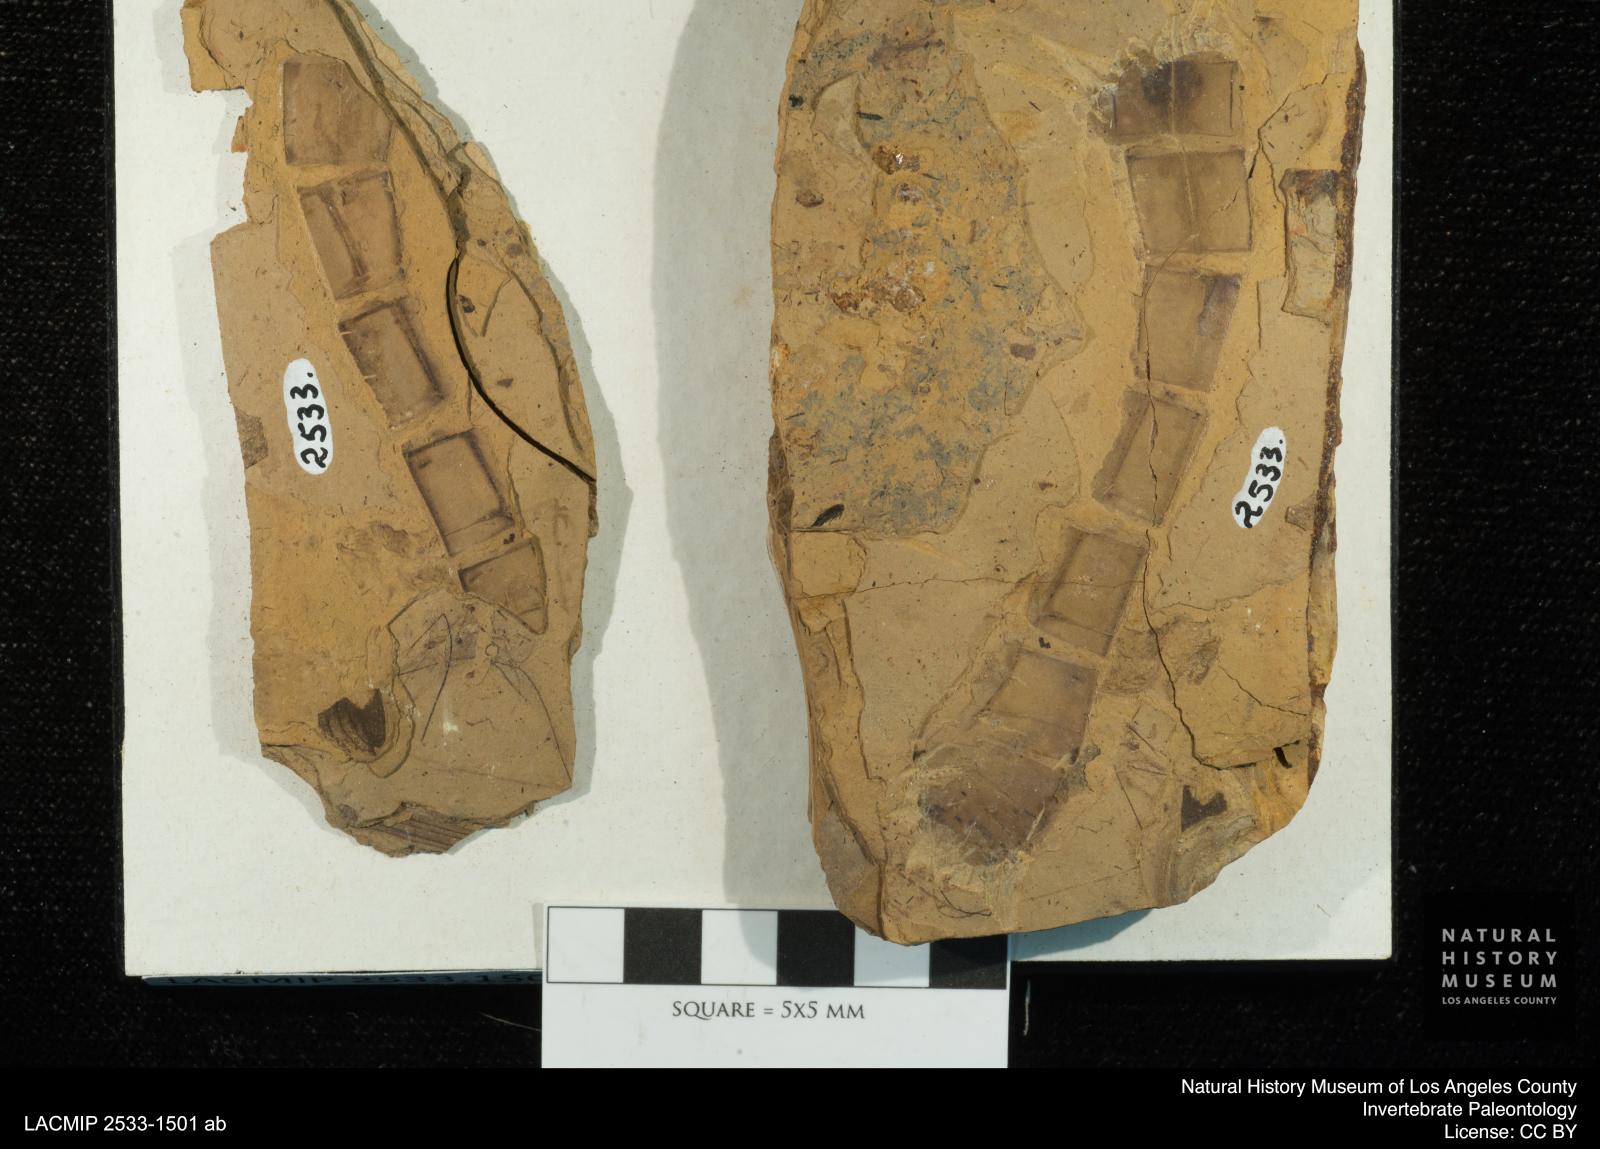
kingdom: Animalia
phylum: Arthropoda
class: Insecta
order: Odonata
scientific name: Odonata
